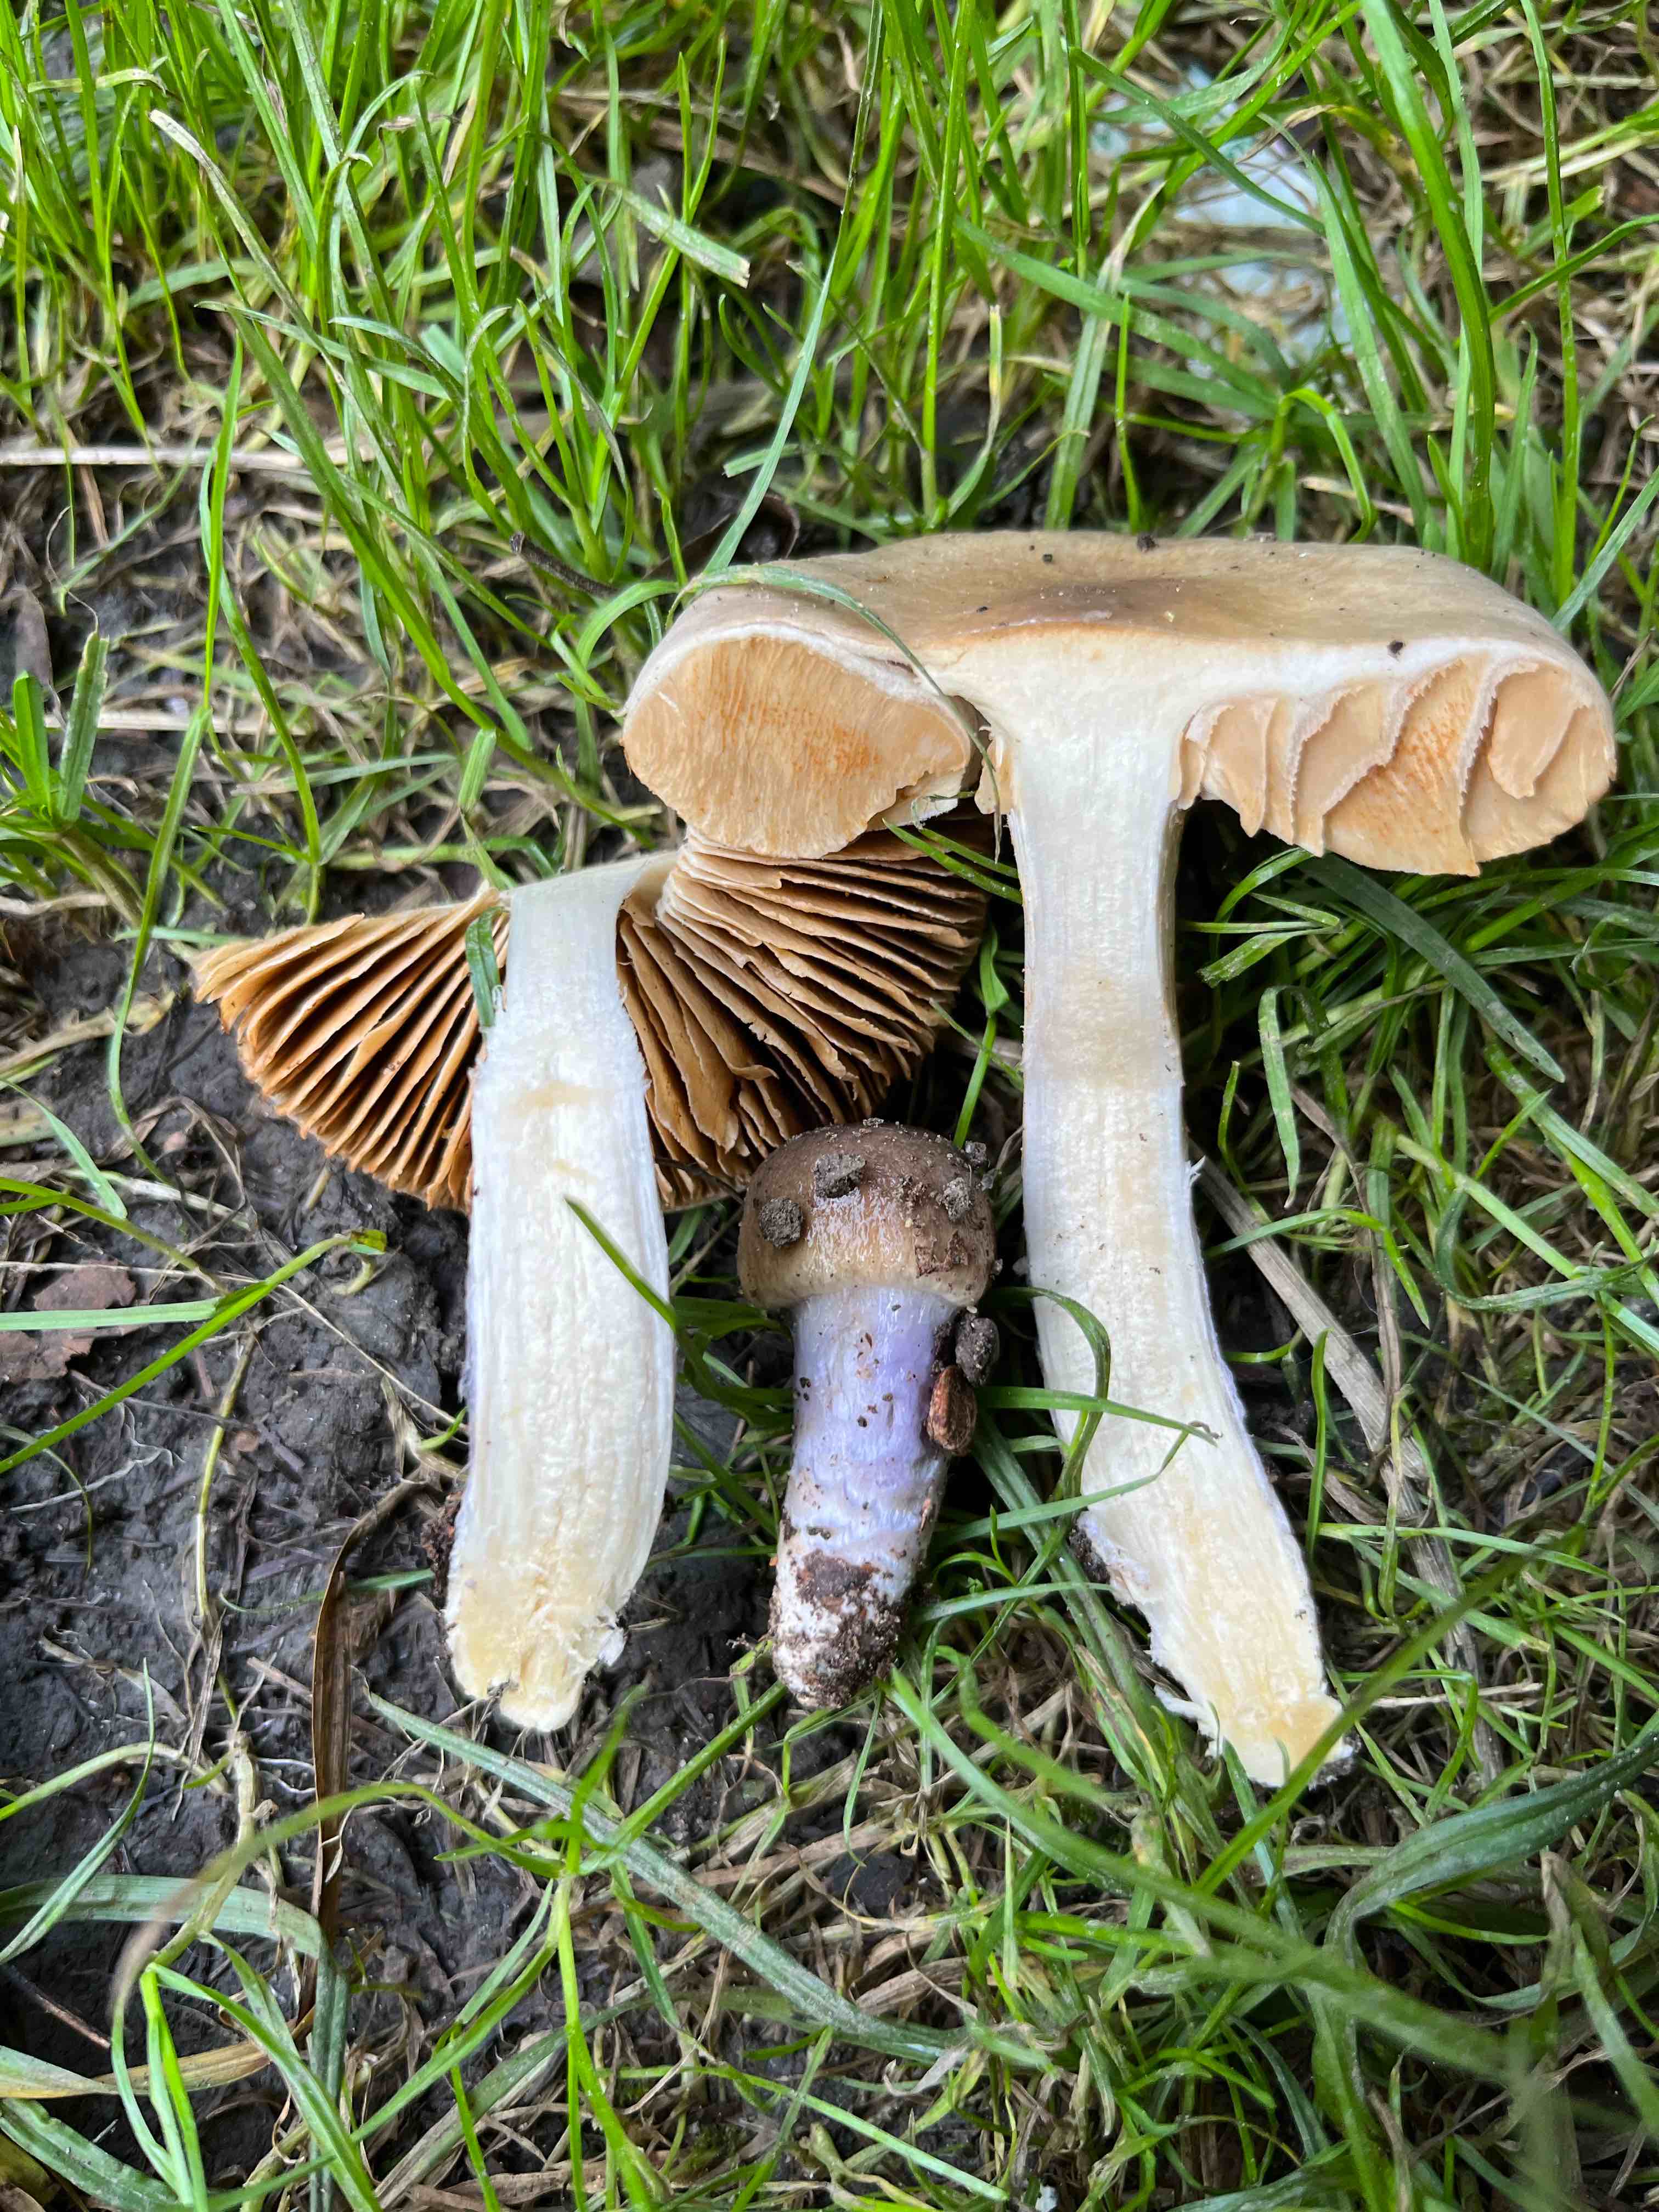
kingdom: Fungi
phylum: Basidiomycota
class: Agaricomycetes
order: Agaricales
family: Cortinariaceae
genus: Cortinarius
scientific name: Cortinarius
